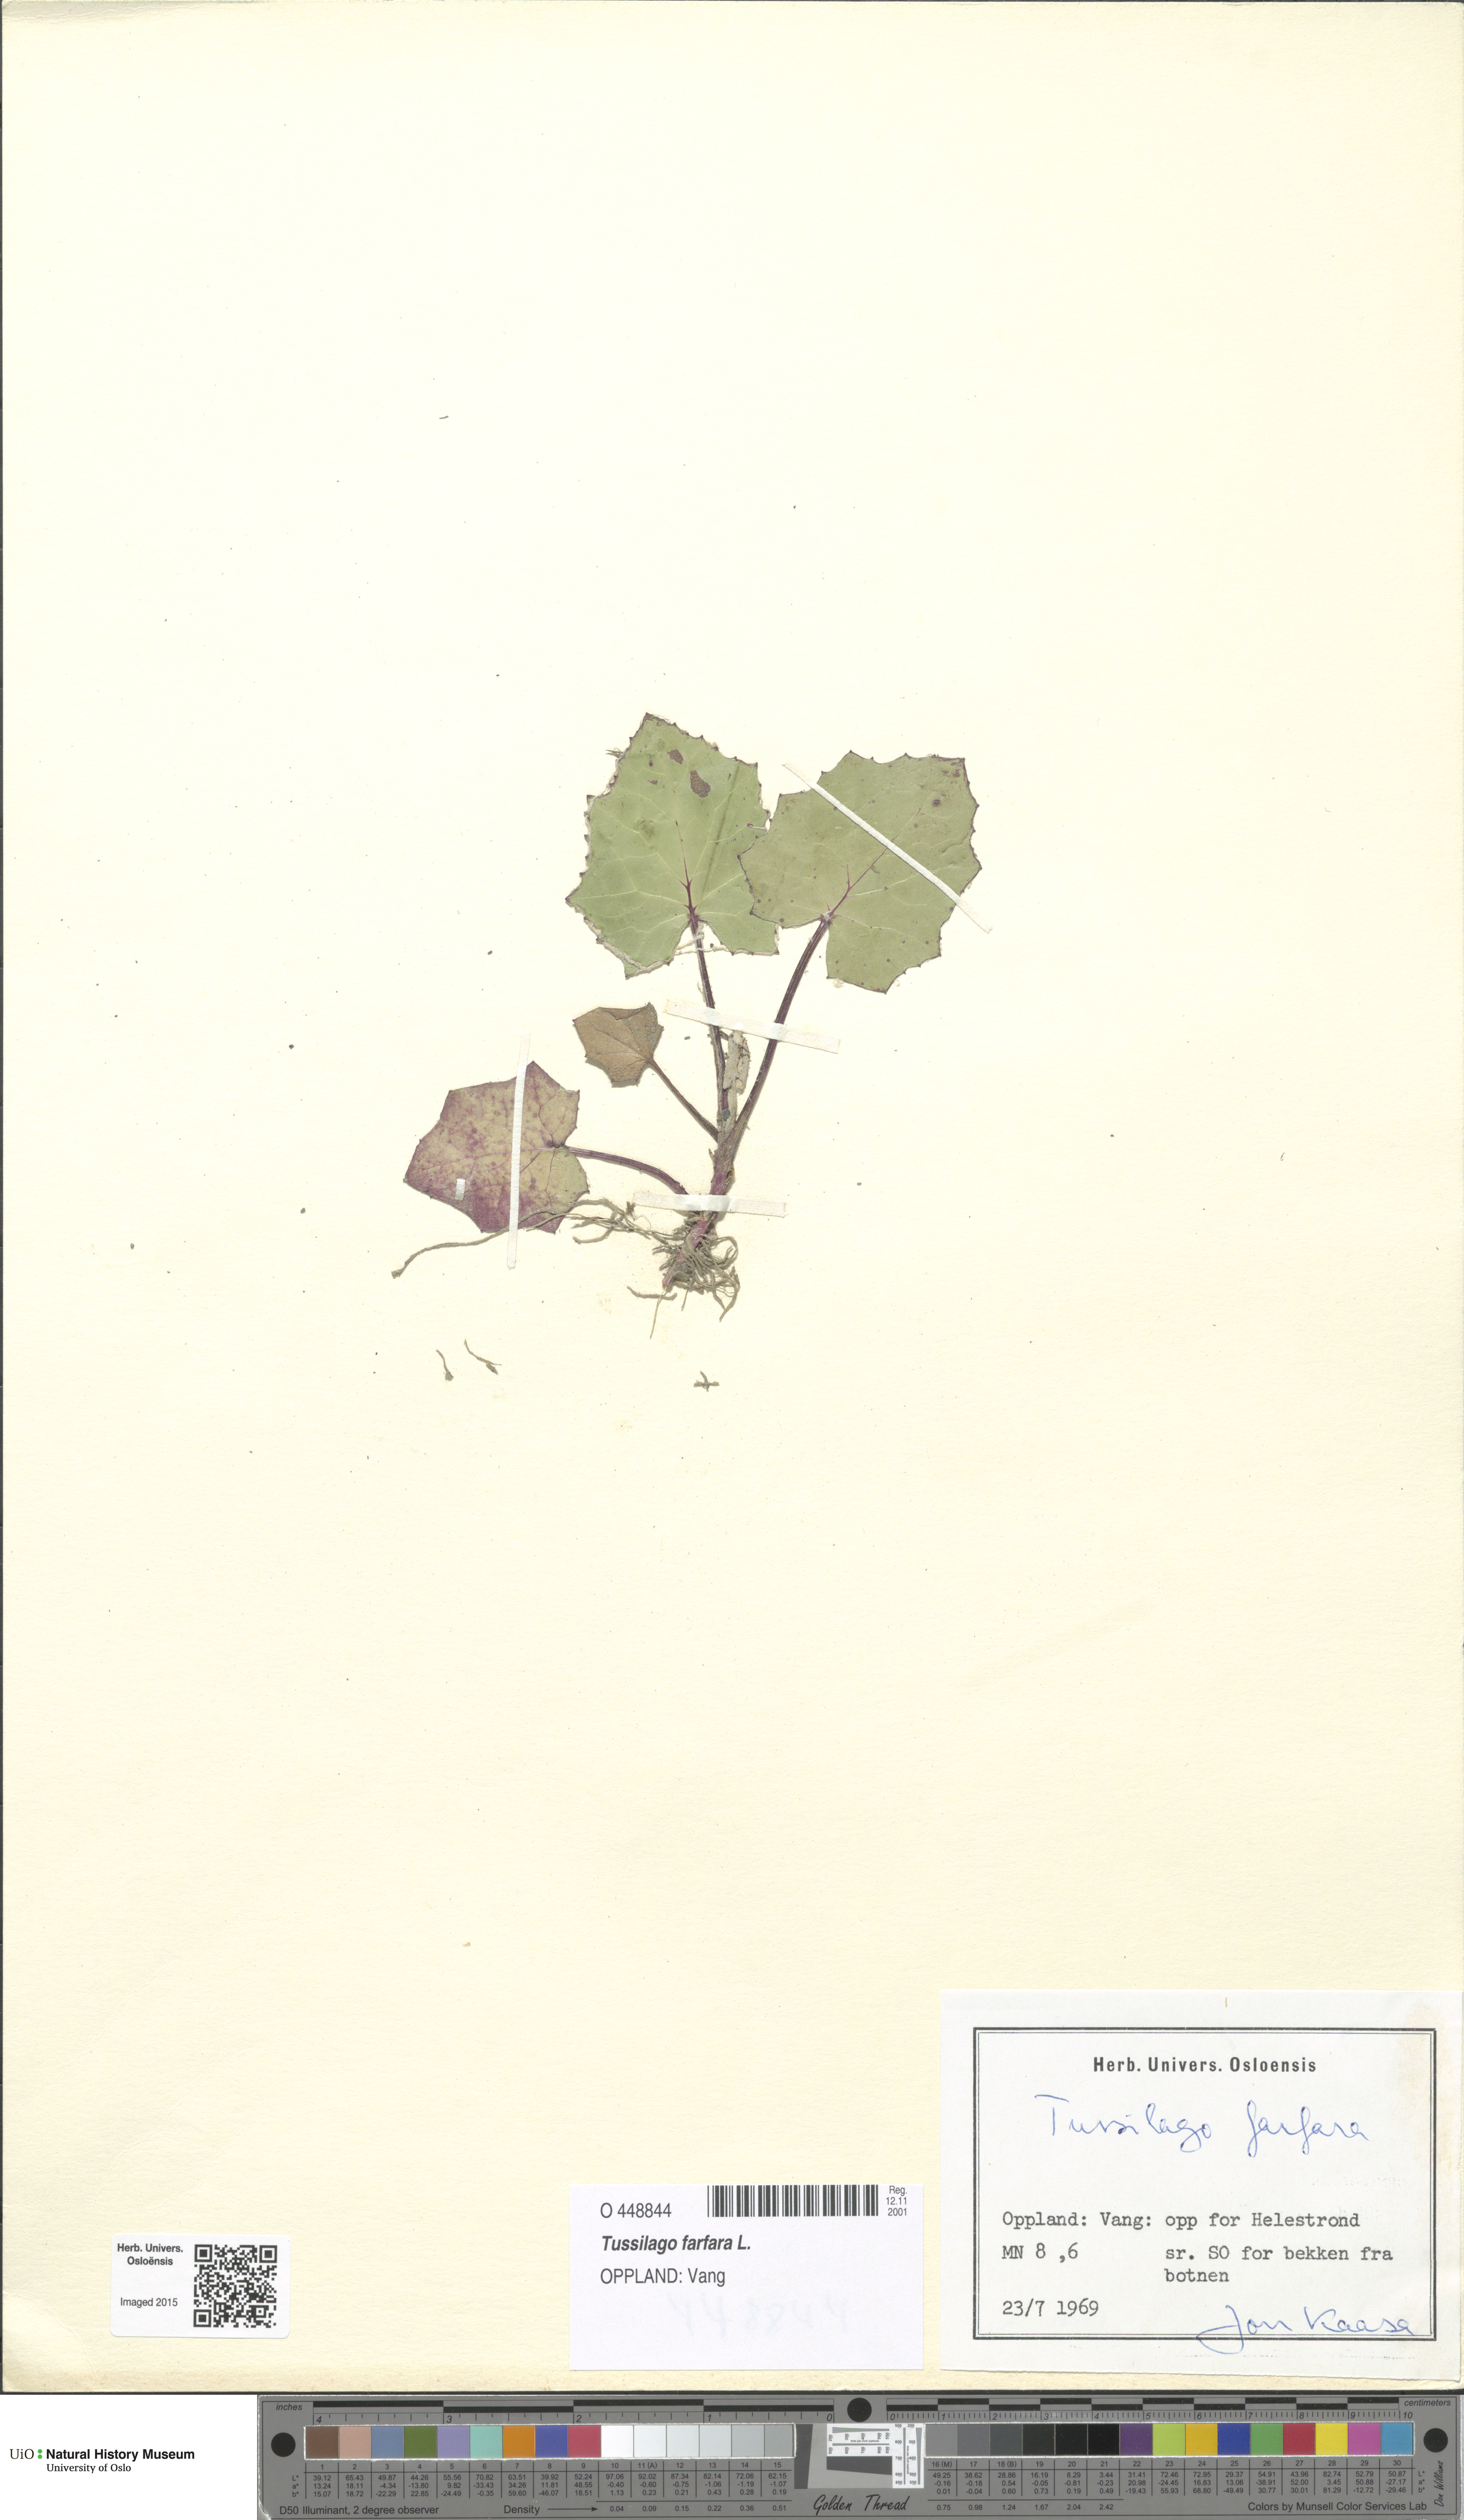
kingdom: Plantae
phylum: Tracheophyta
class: Magnoliopsida
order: Asterales
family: Asteraceae
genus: Tussilago
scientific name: Tussilago farfara
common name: Coltsfoot
